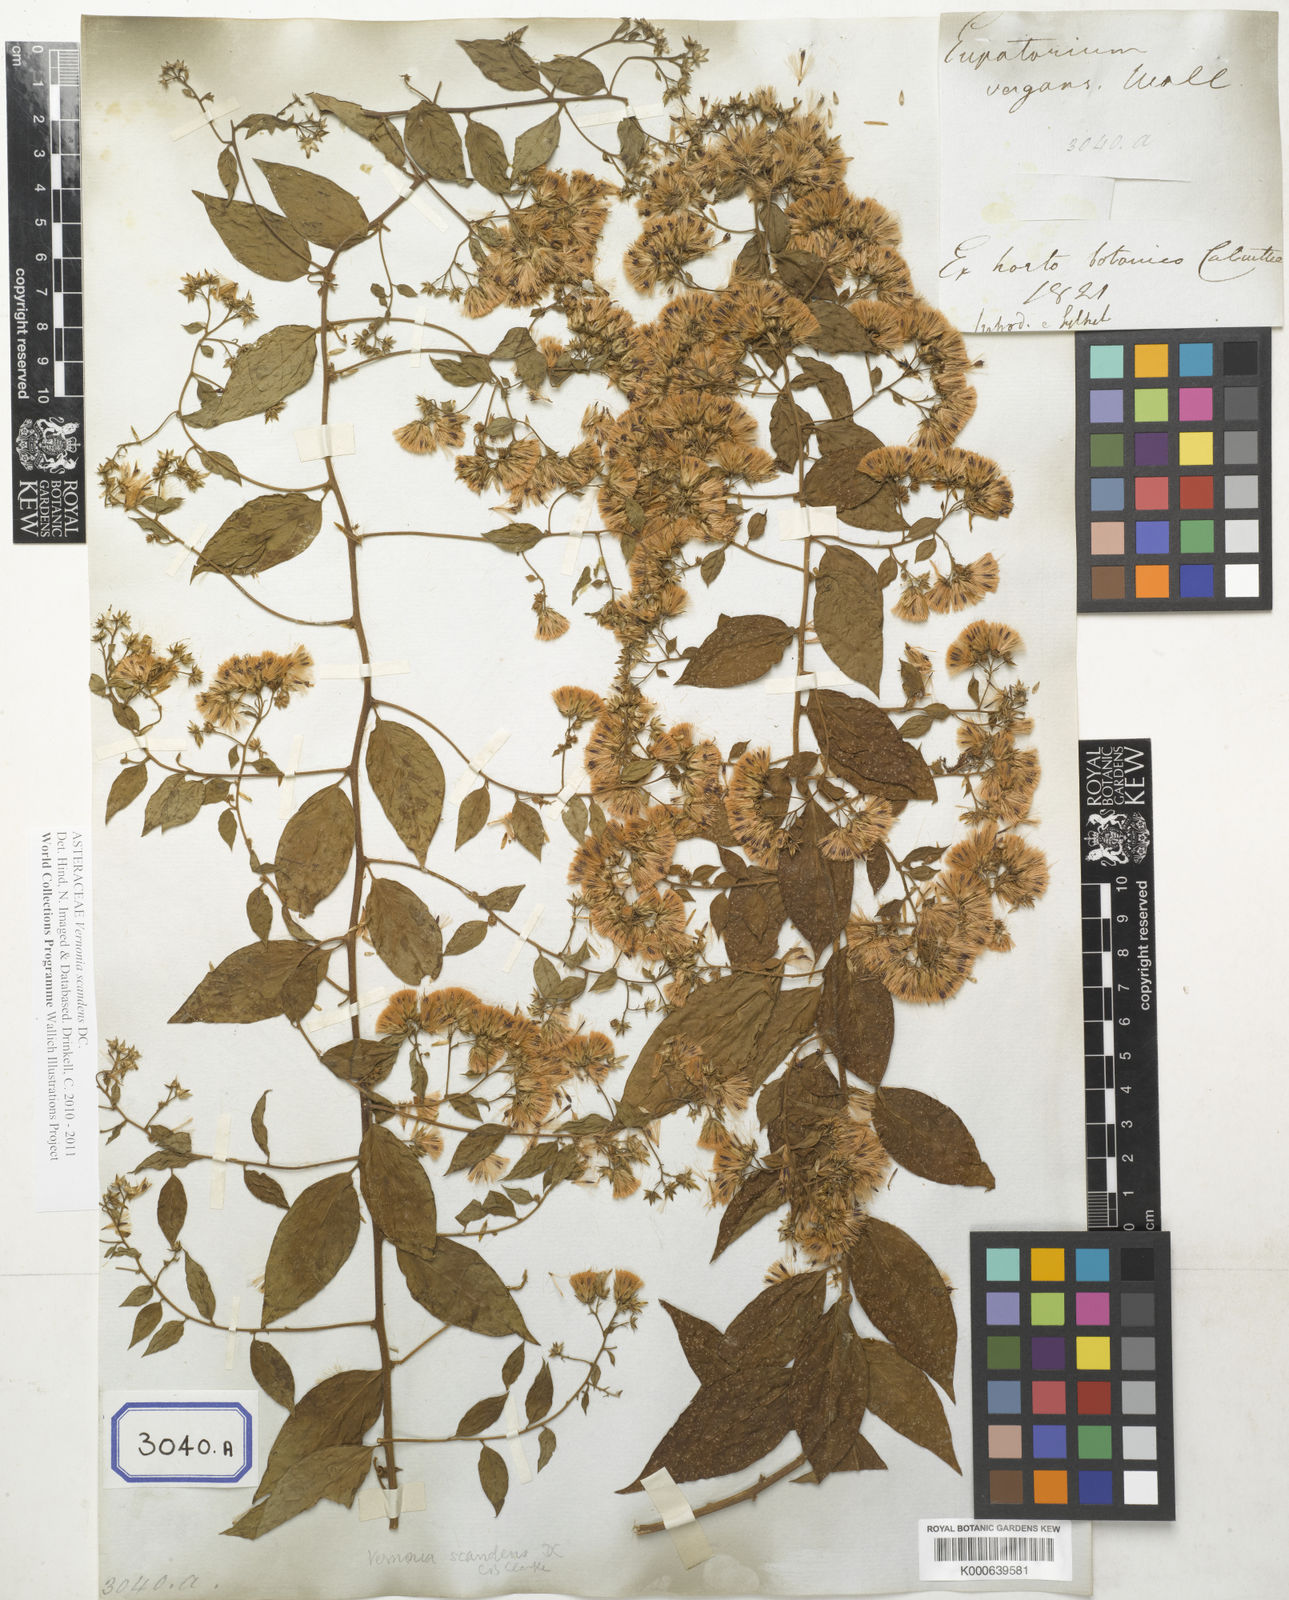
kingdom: Plantae
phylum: Tracheophyta
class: Magnoliopsida
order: Asterales
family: Asteraceae
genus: Decaneuropsis
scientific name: Decaneuropsis obovata
